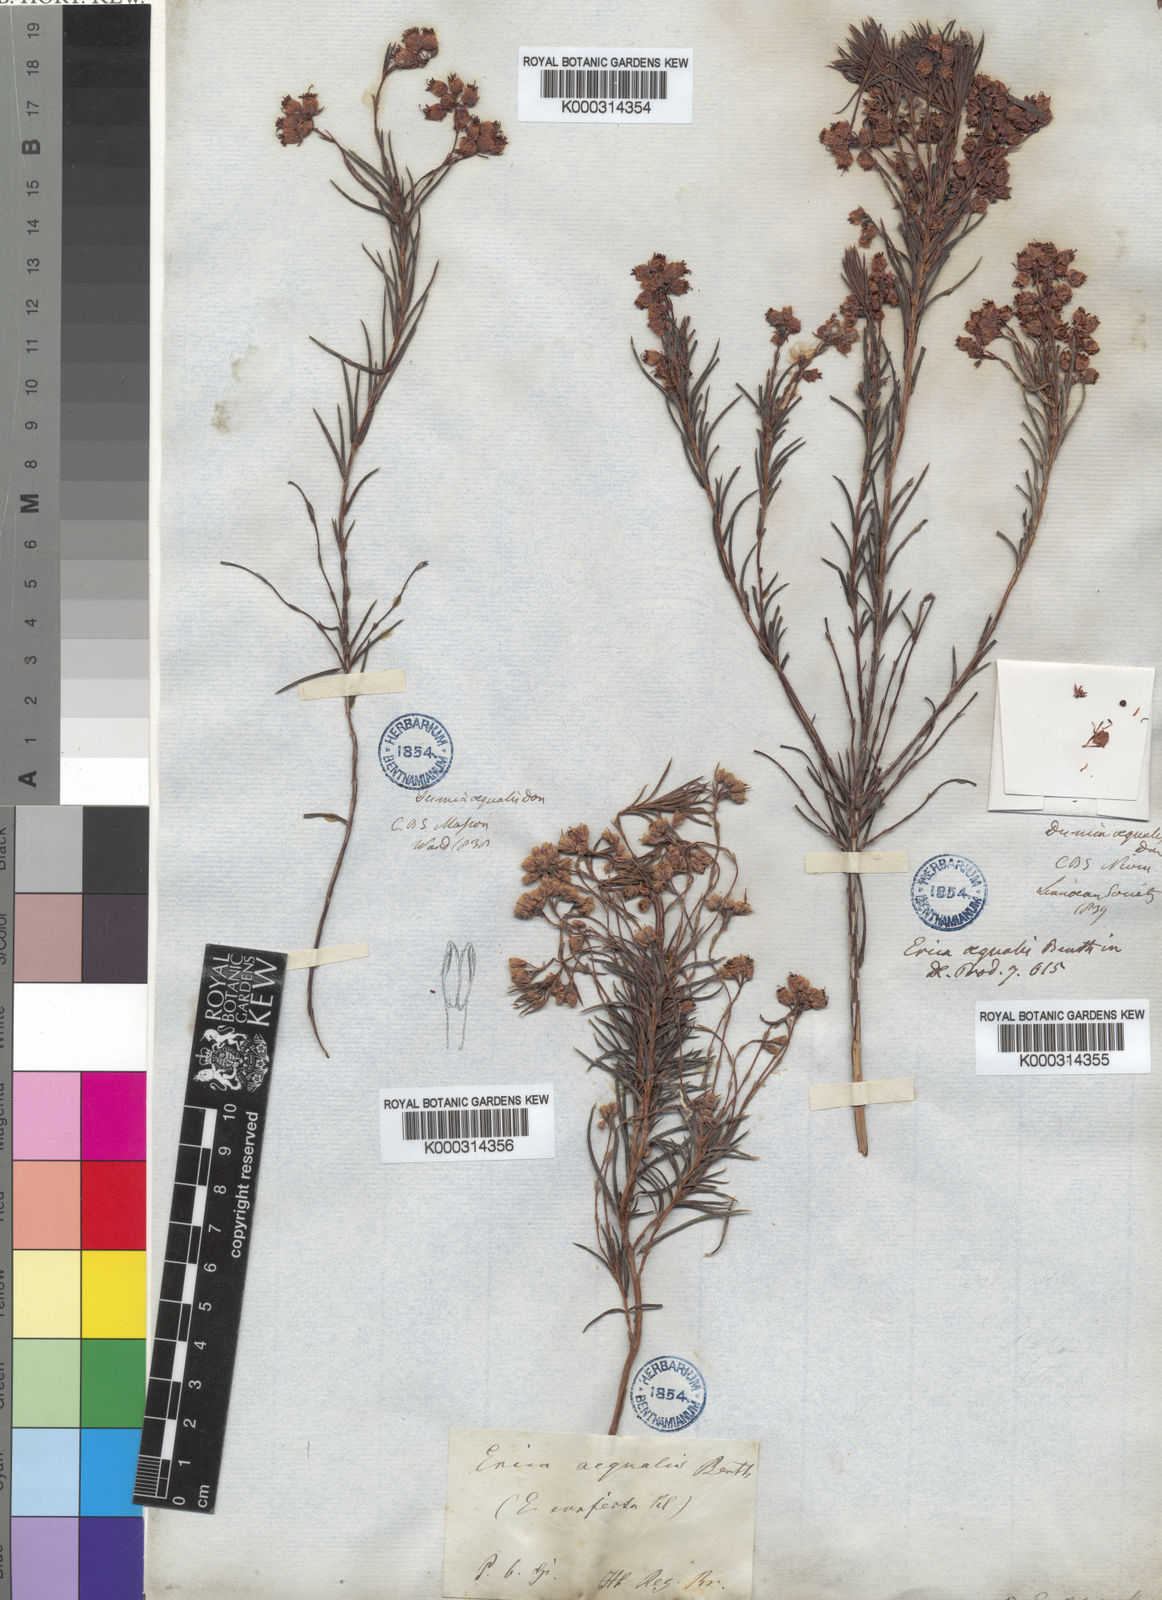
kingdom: Plantae
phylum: Tracheophyta
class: Magnoliopsida
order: Ericales
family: Ericaceae
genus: Erica
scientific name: Erica polifolia
